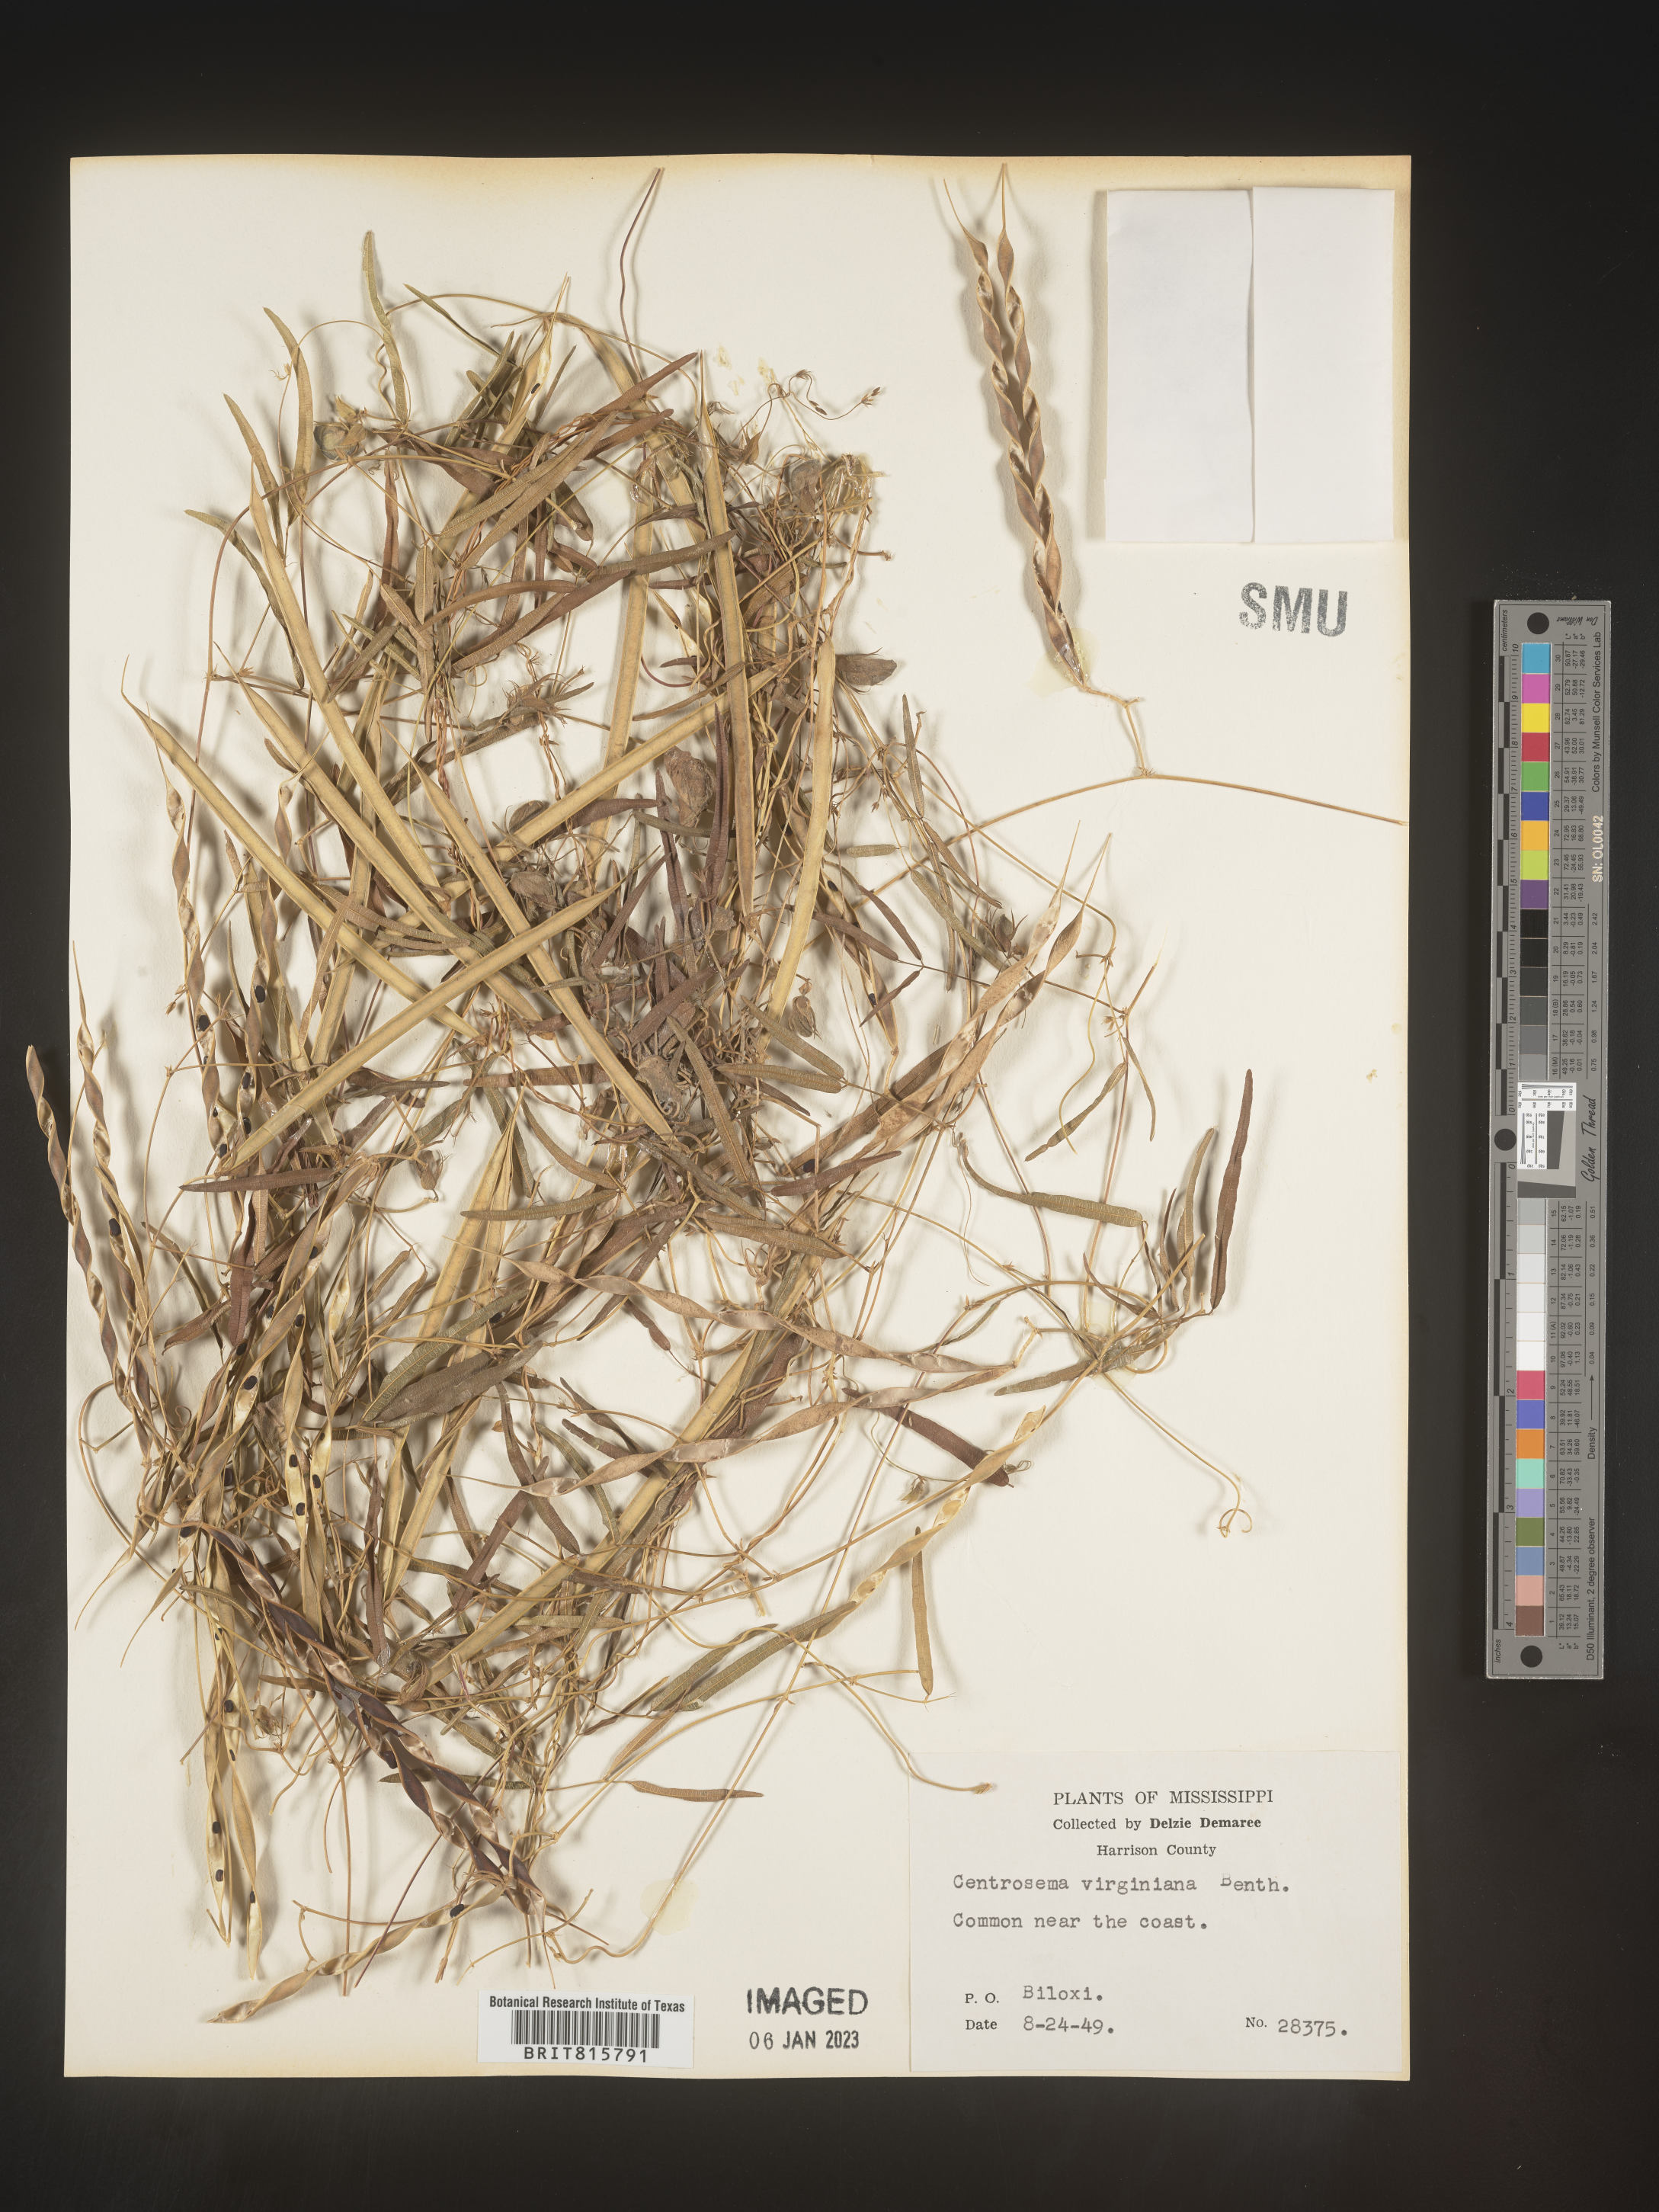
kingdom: Plantae
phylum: Tracheophyta
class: Magnoliopsida
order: Fabales
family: Fabaceae
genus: Centrosema
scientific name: Centrosema virginianum
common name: Butterfly-pea
